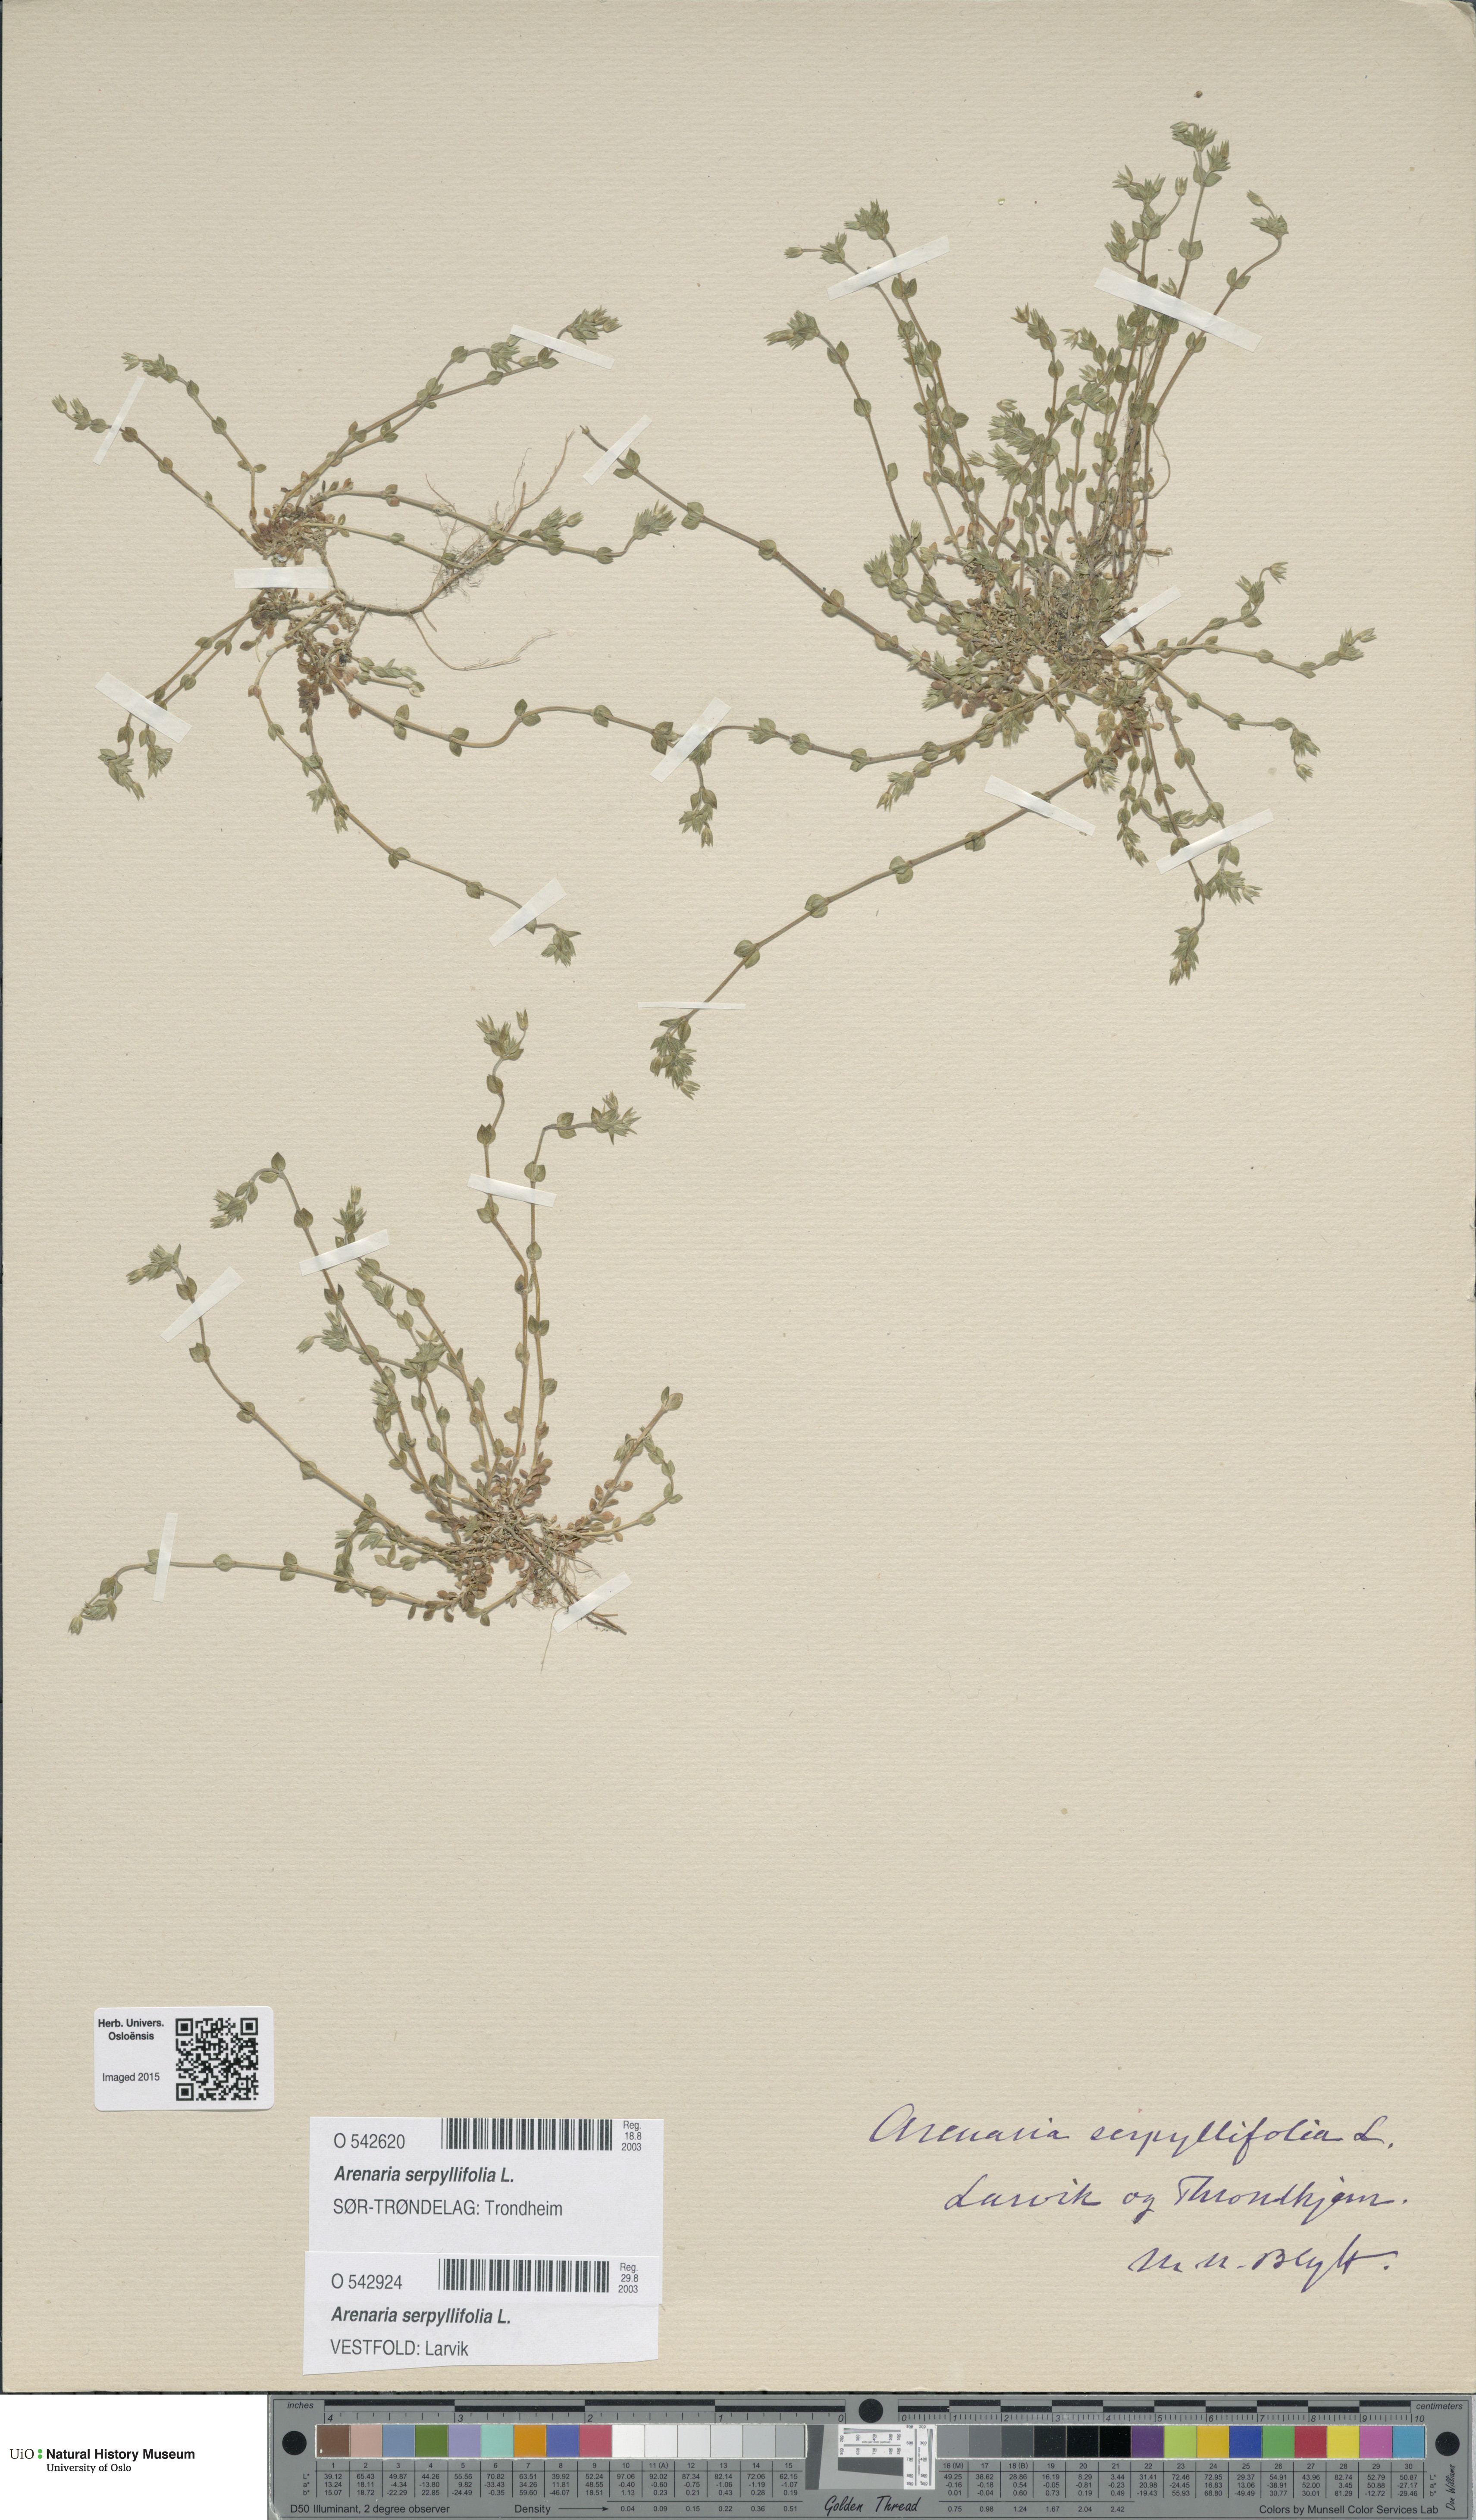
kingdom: Plantae
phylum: Tracheophyta
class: Magnoliopsida
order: Caryophyllales
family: Caryophyllaceae
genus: Arenaria
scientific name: Arenaria serpyllifolia
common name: Thyme-leaved sandwort
